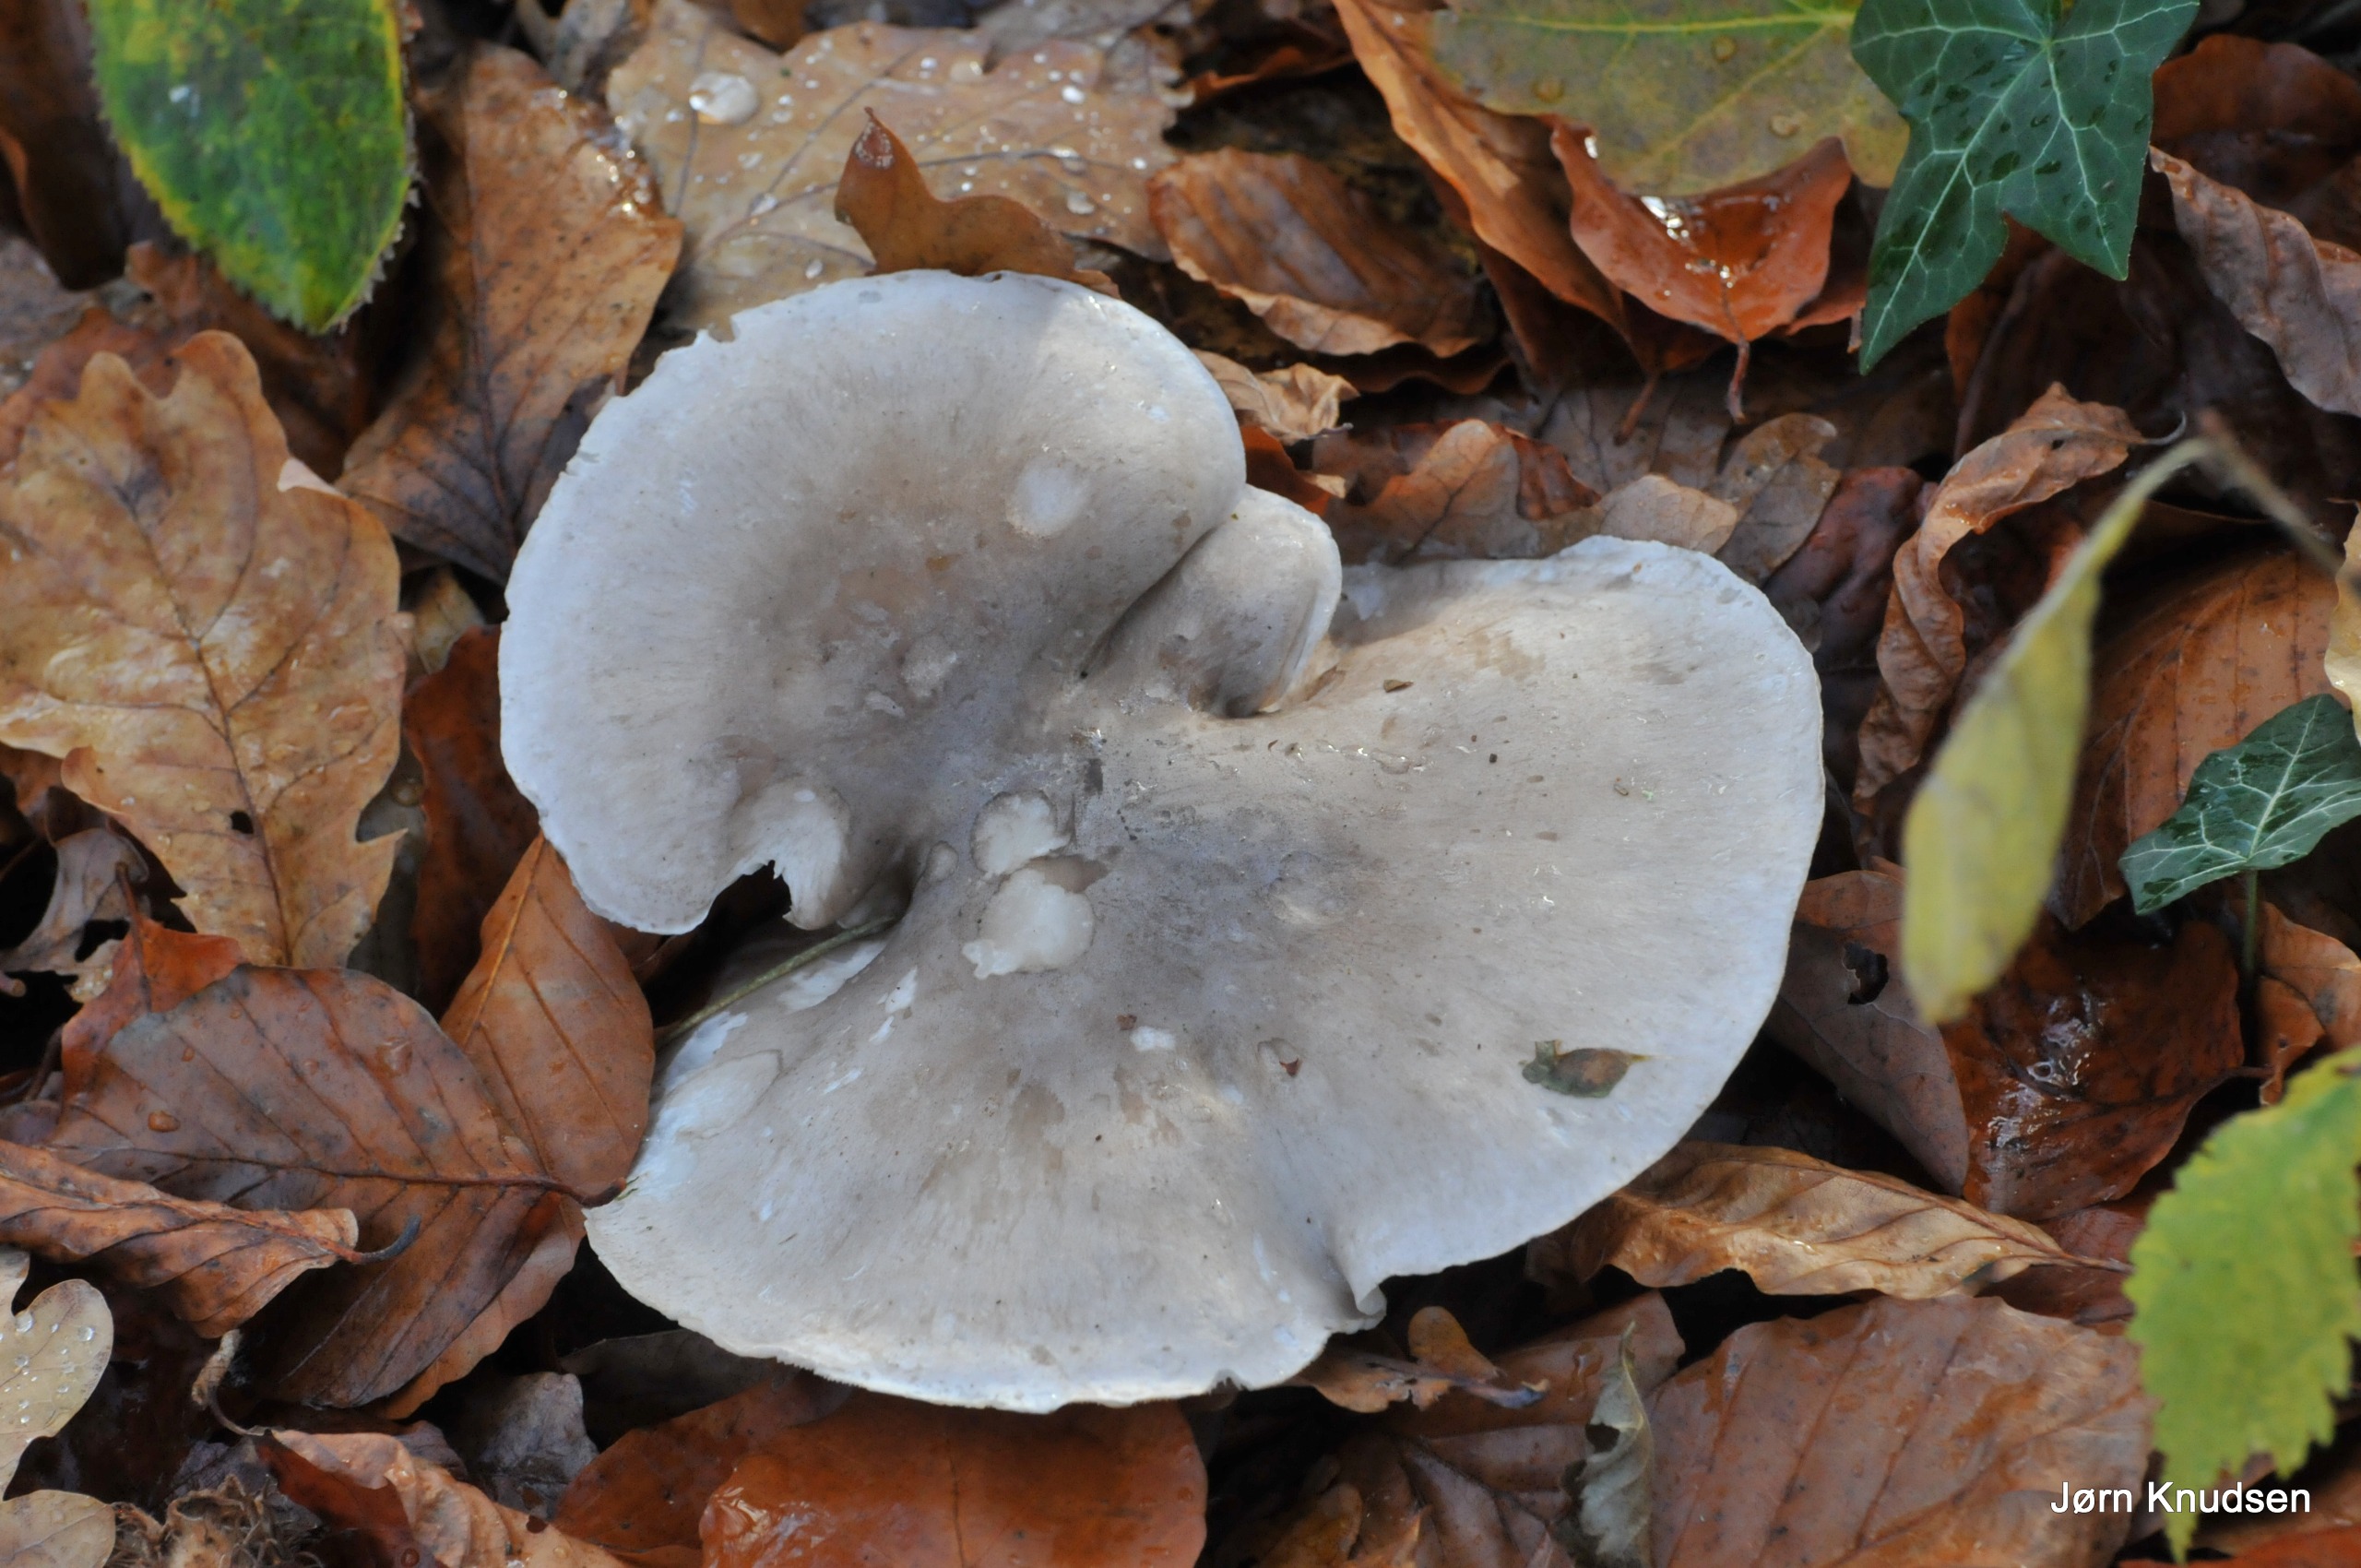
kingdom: Fungi
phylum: Basidiomycota
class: Agaricomycetes
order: Agaricales
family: Tricholomataceae
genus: Clitocybe
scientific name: Clitocybe nebularis
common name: Tåge-tragthat
